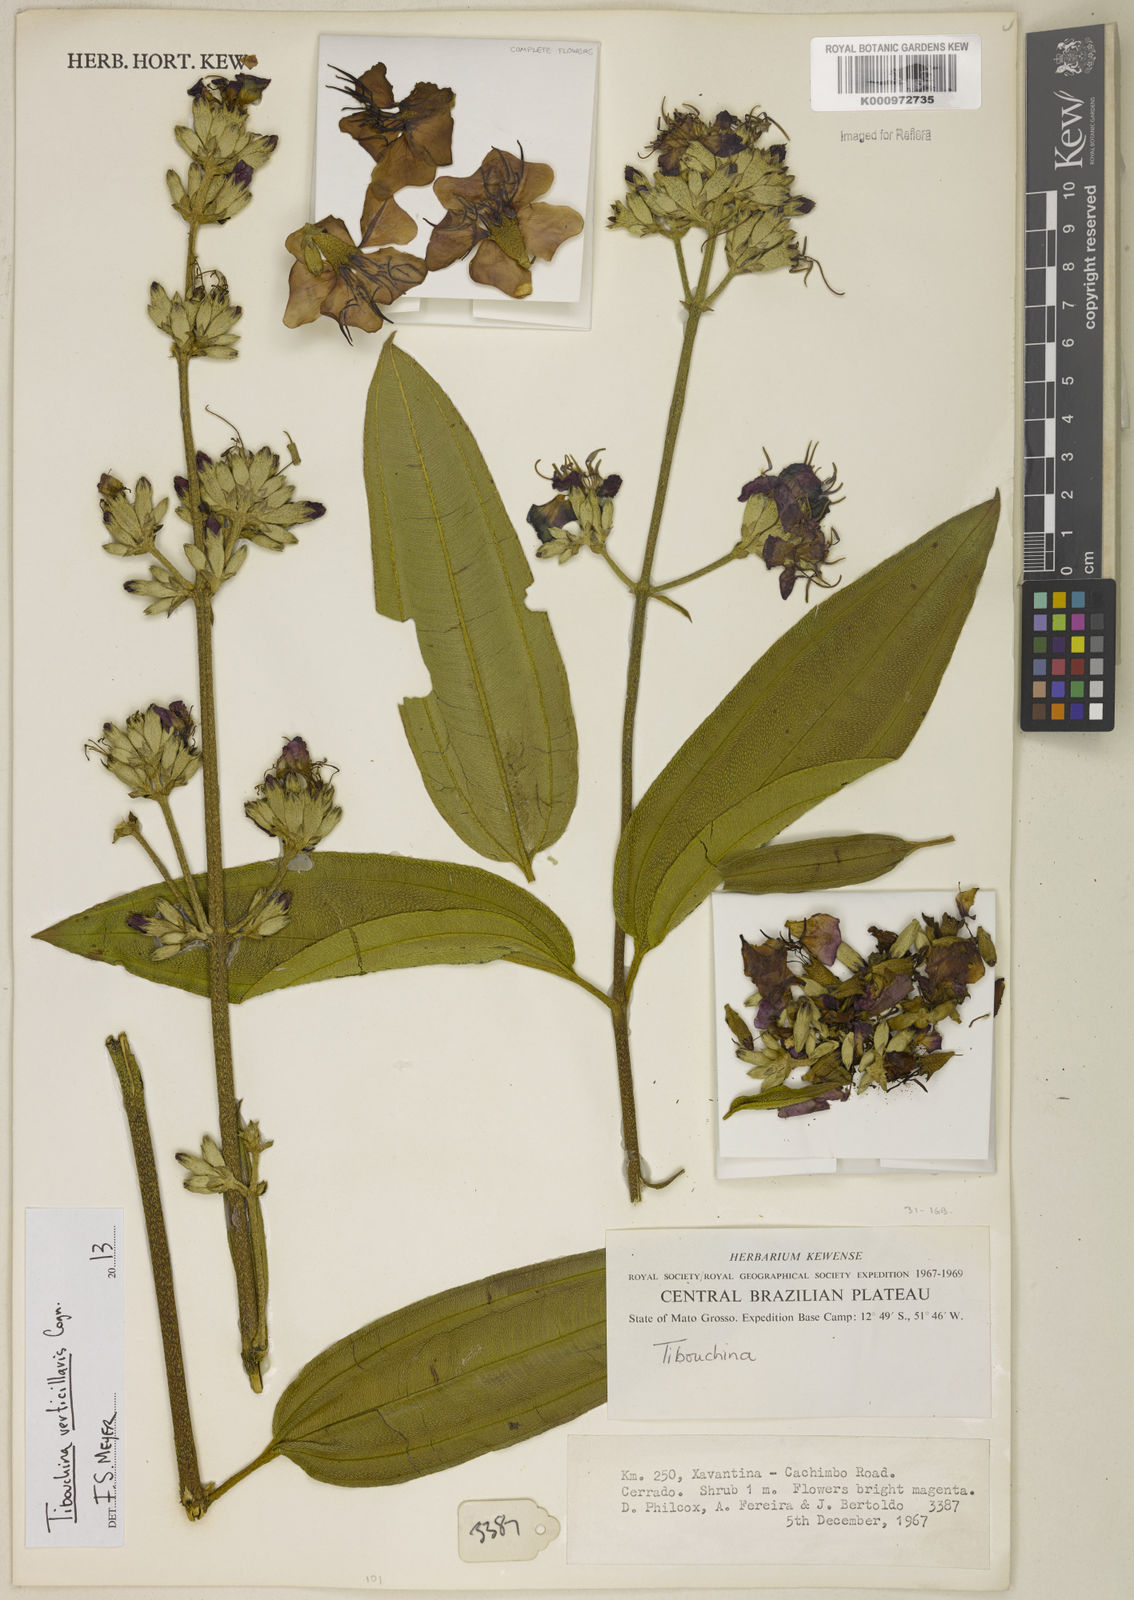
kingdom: Plantae
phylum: Tracheophyta
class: Magnoliopsida
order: Myrtales
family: Melastomataceae
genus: Tibouchina
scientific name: Tibouchina verticillaris
